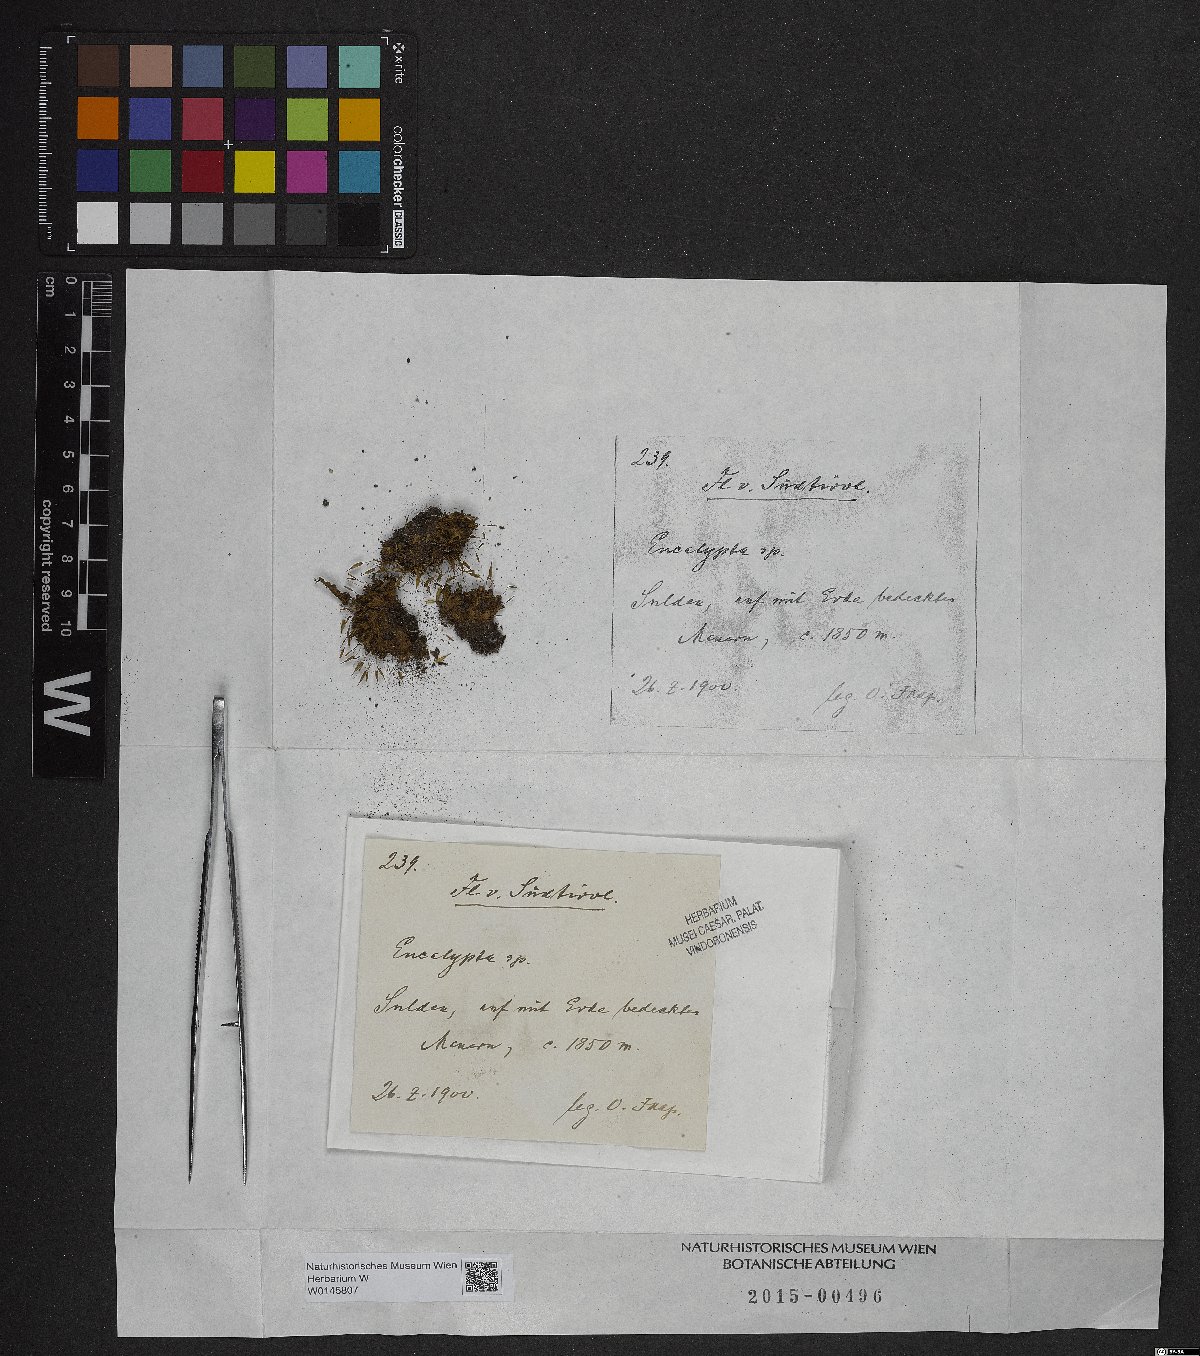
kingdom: Plantae
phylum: Bryophyta
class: Bryopsida
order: Encalyptales
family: Encalyptaceae
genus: Encalypta
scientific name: Encalypta
